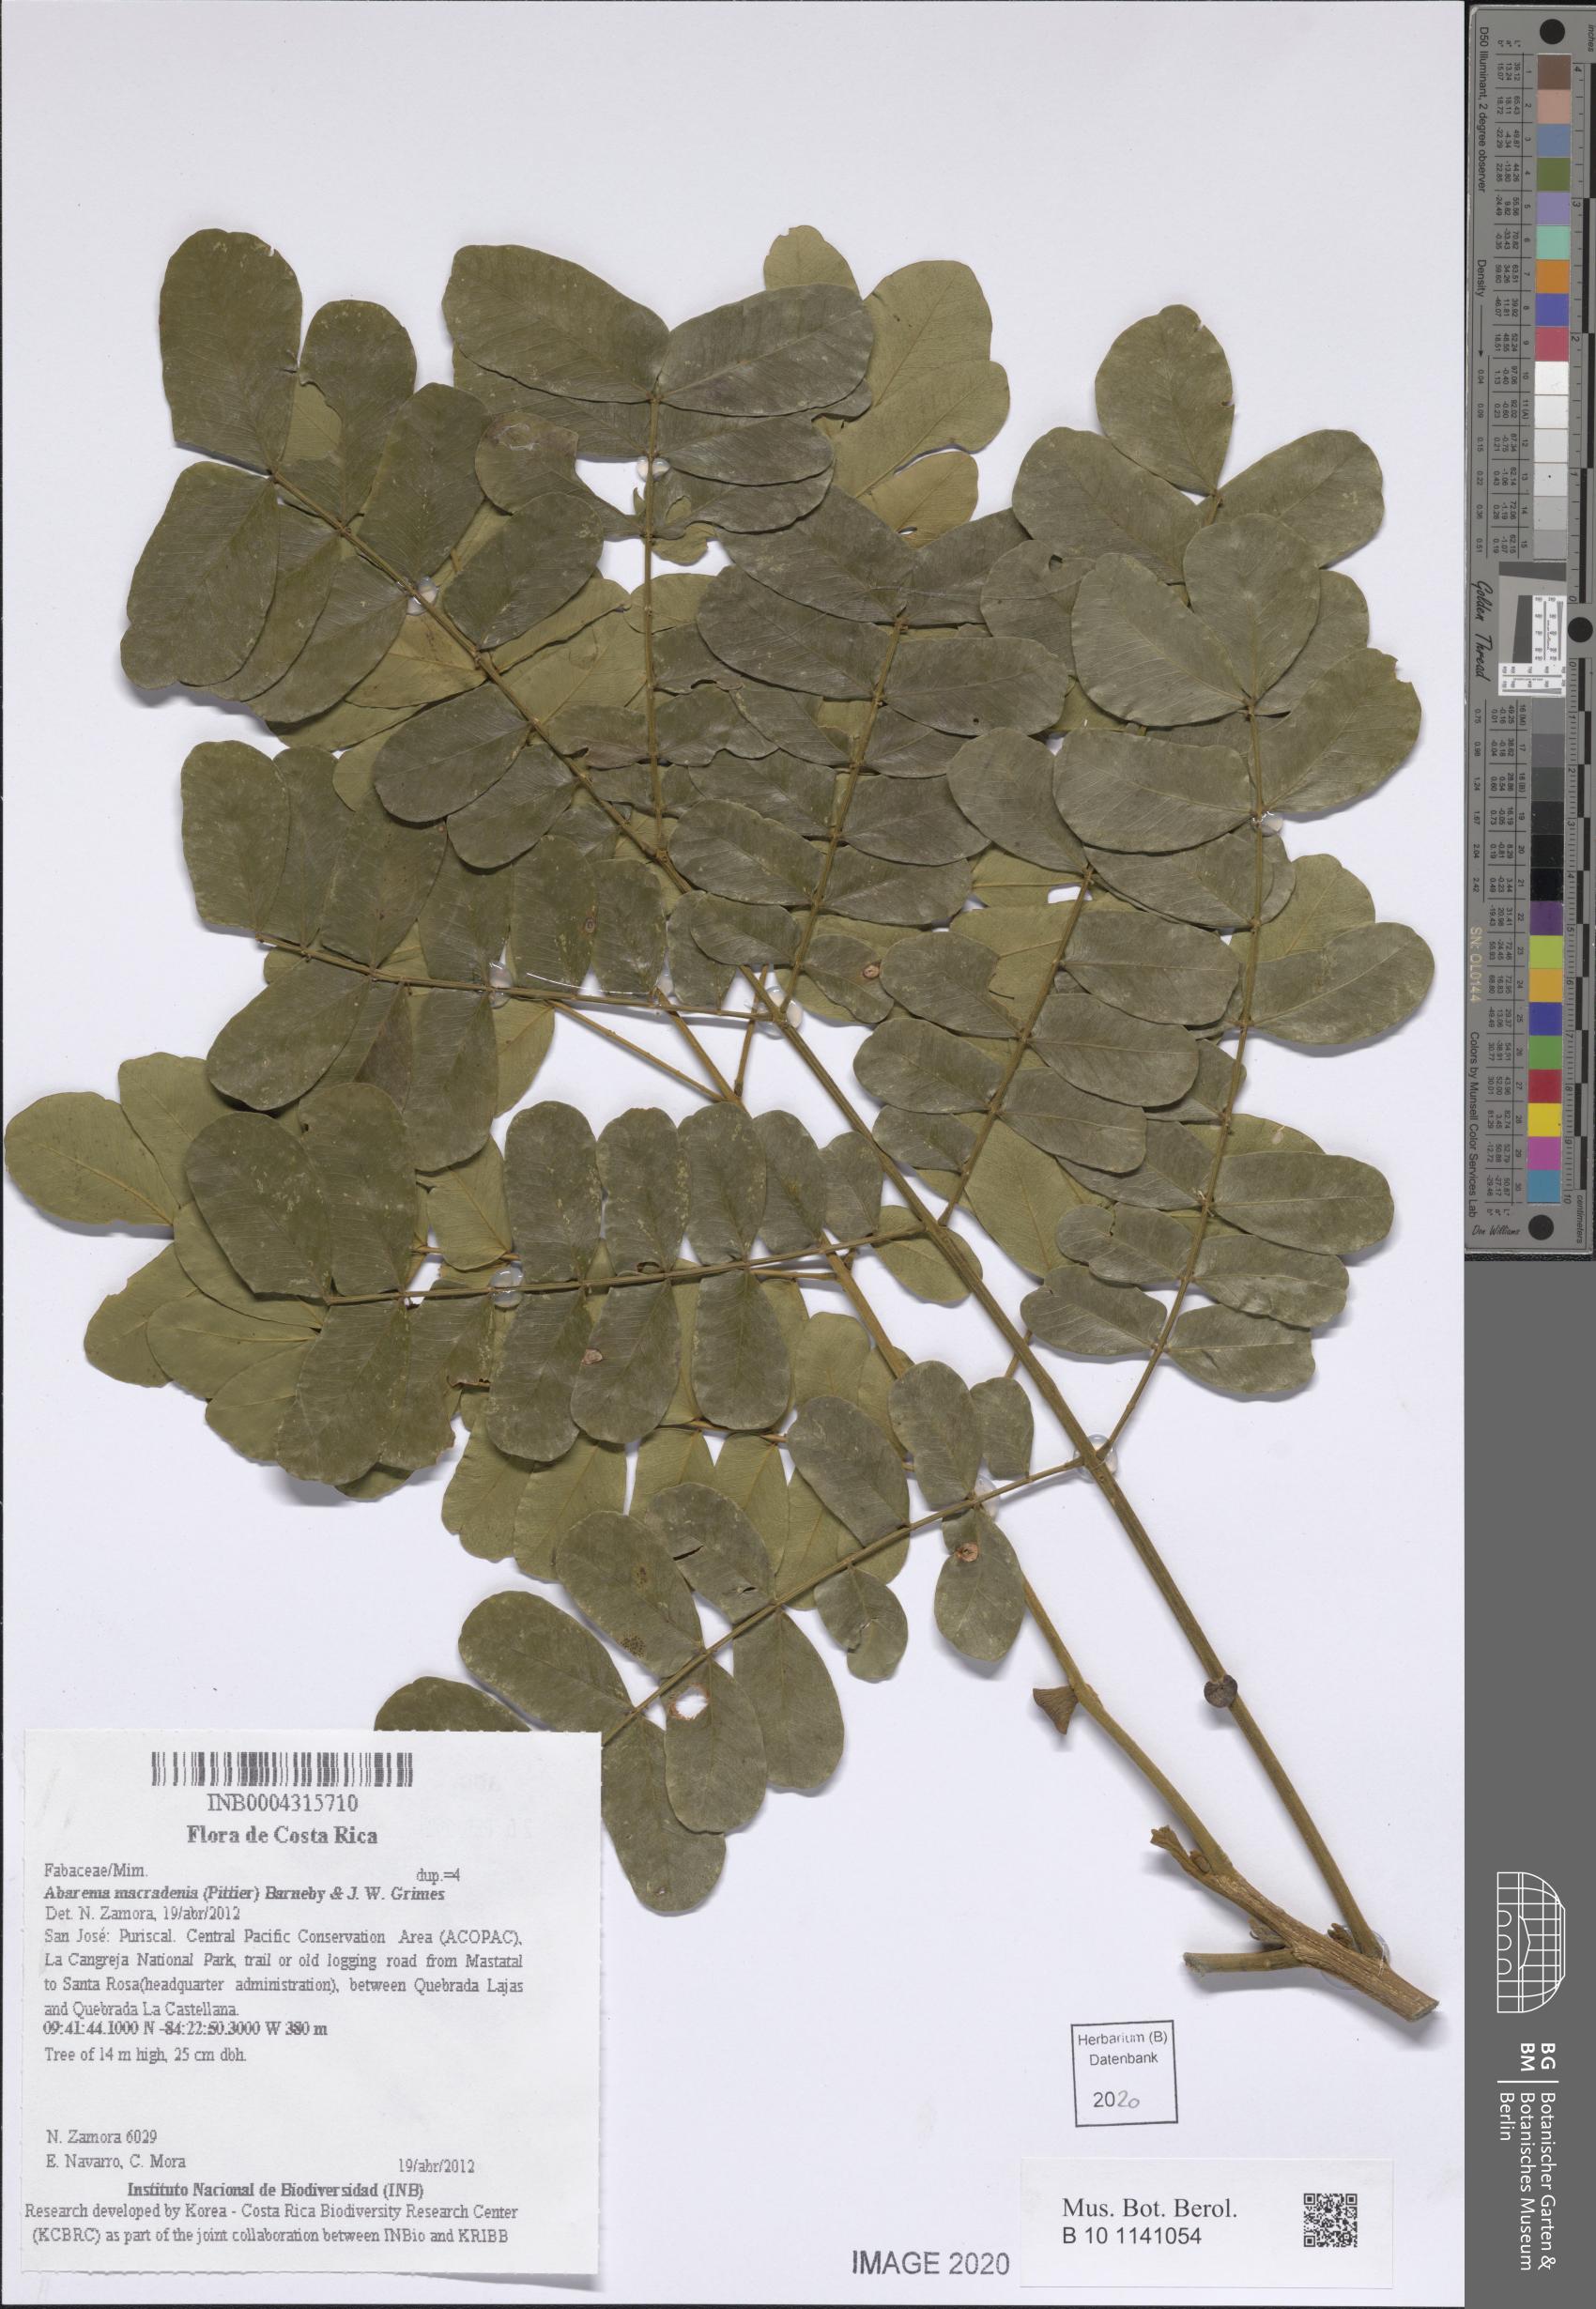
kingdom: Plantae
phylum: Tracheophyta
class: Magnoliopsida
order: Fabales
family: Fabaceae
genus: Jupunba
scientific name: Jupunba macradenia
